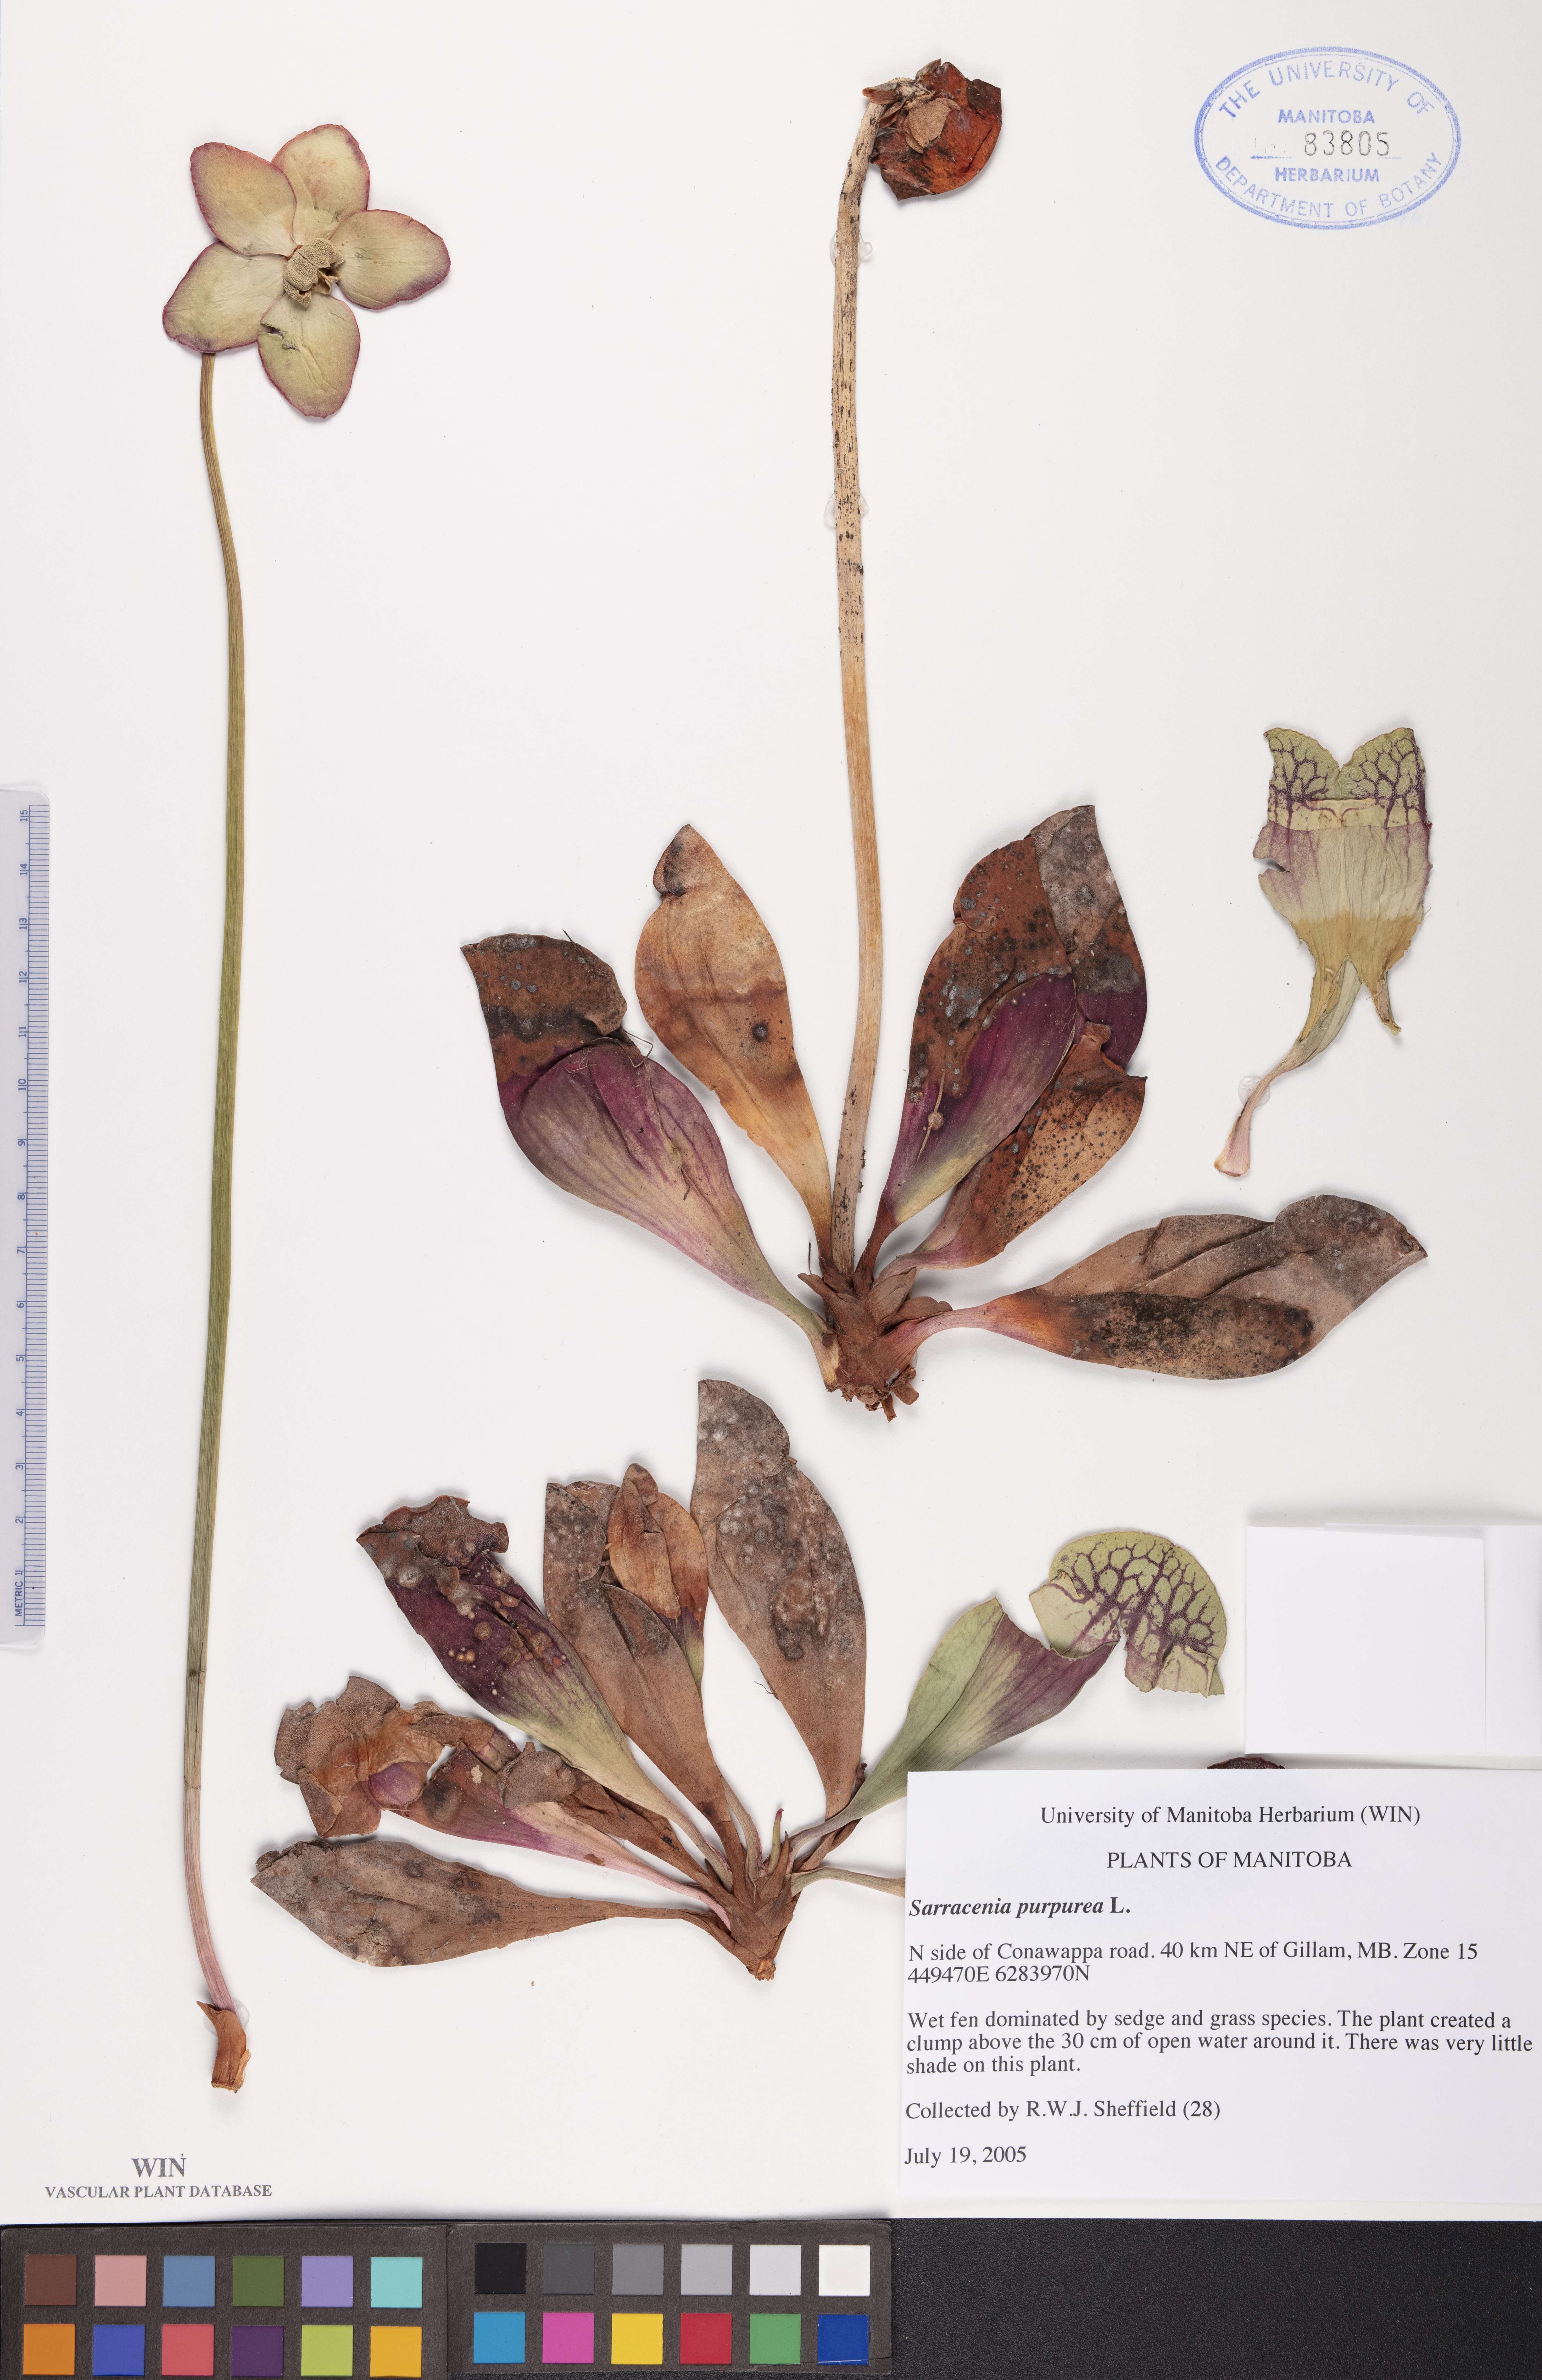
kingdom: Plantae
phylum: Tracheophyta
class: Magnoliopsida
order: Ericales
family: Sarraceniaceae
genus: Sarracenia
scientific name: Sarracenia purpurea
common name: Pitcherplant
